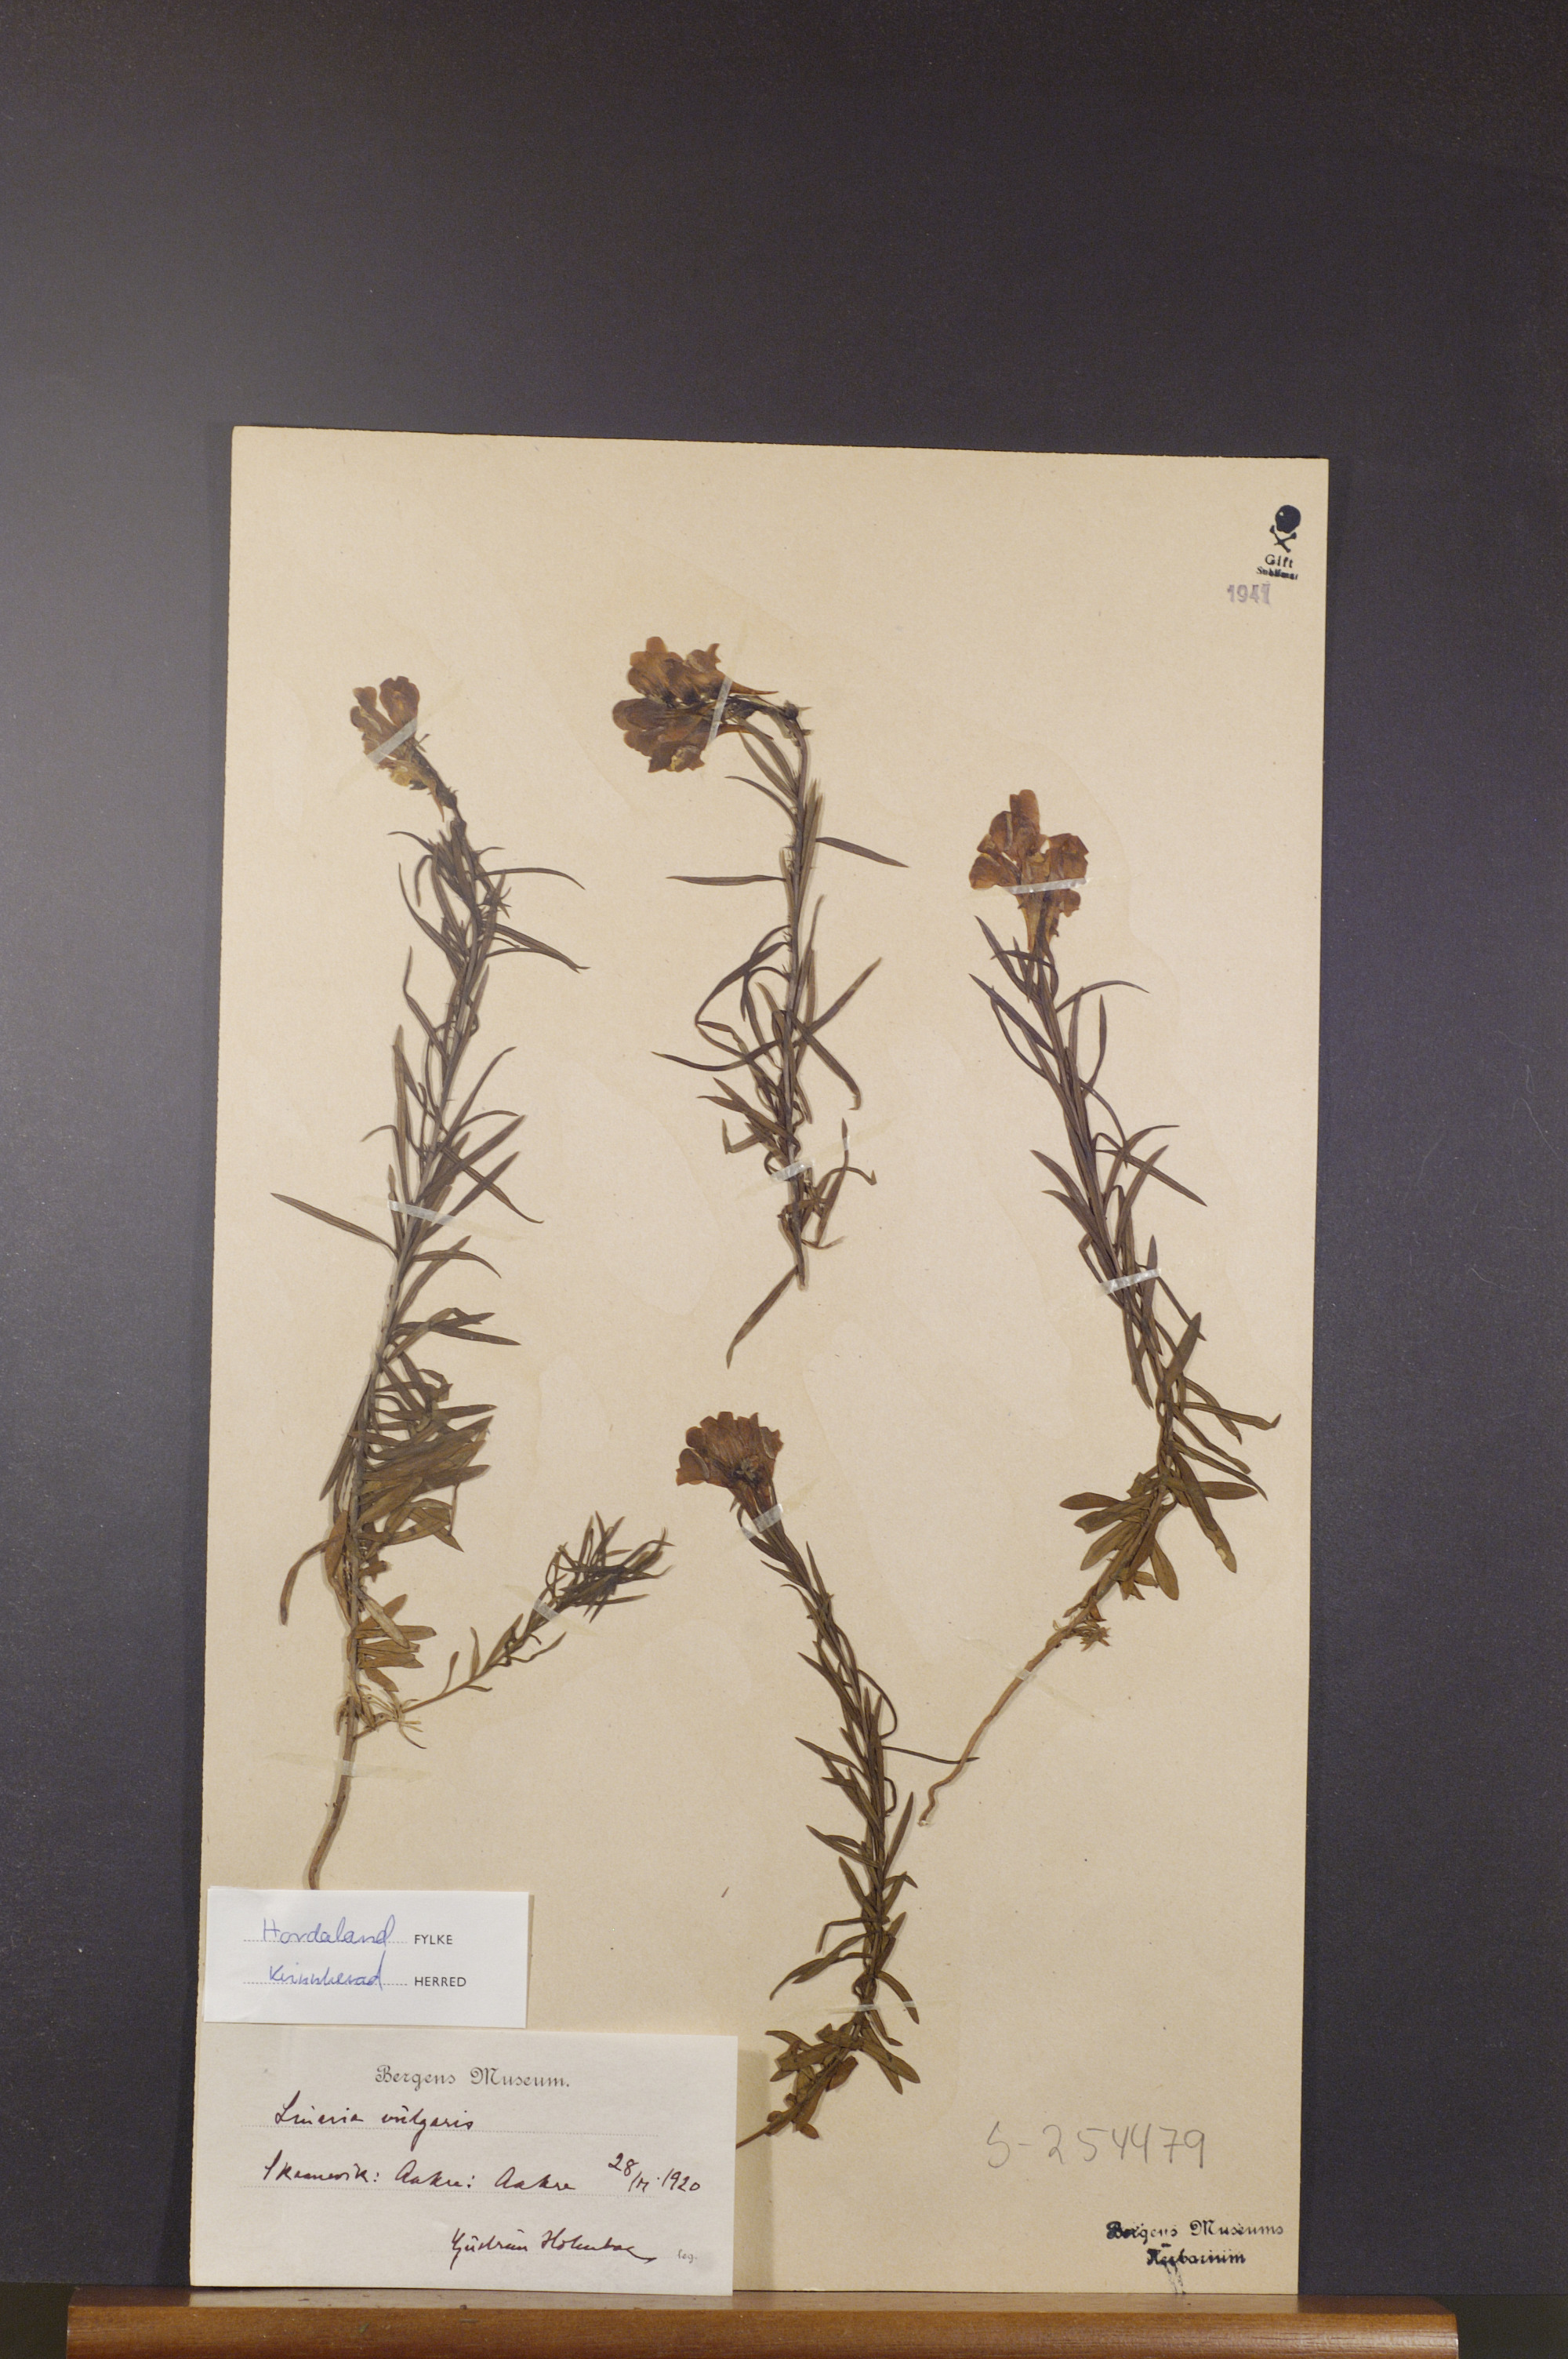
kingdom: Plantae
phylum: Tracheophyta
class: Magnoliopsida
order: Lamiales
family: Plantaginaceae
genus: Linaria
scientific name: Linaria vulgaris
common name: Butter and eggs
